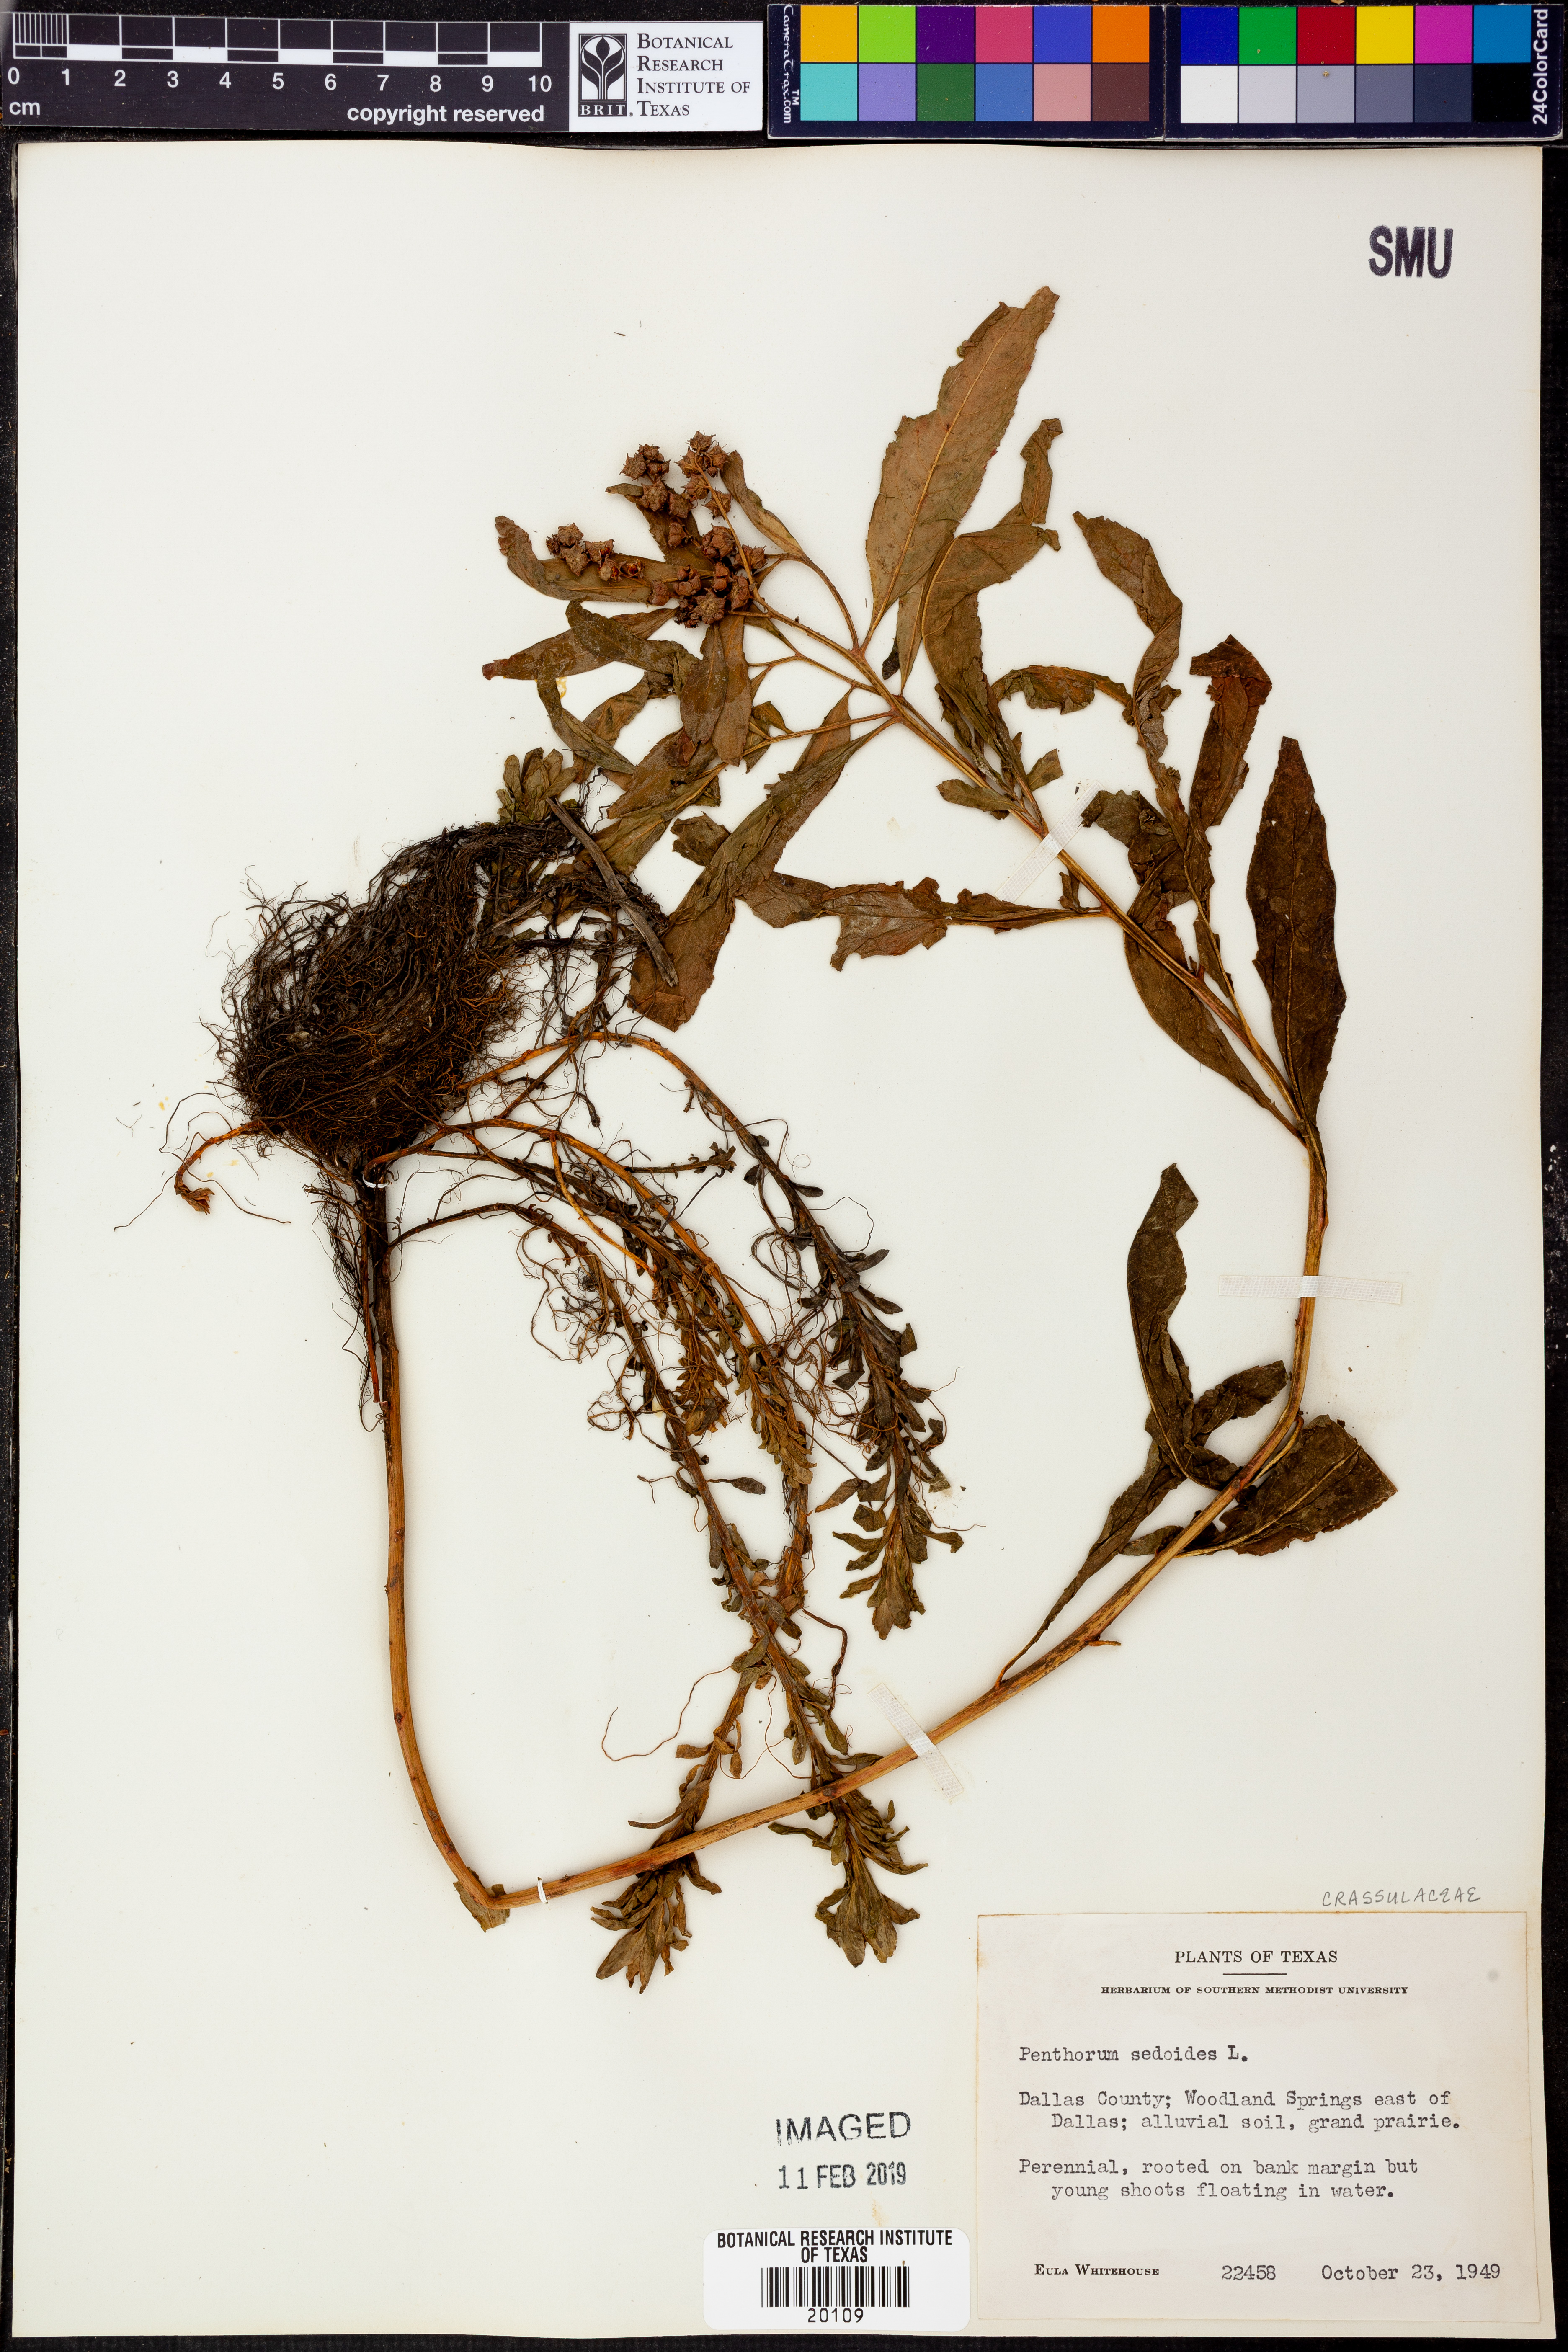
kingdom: Plantae
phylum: Tracheophyta
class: Magnoliopsida
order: Saxifragales
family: Penthoraceae
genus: Penthorum
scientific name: Penthorum sedoides
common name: Ditch stonecrop
